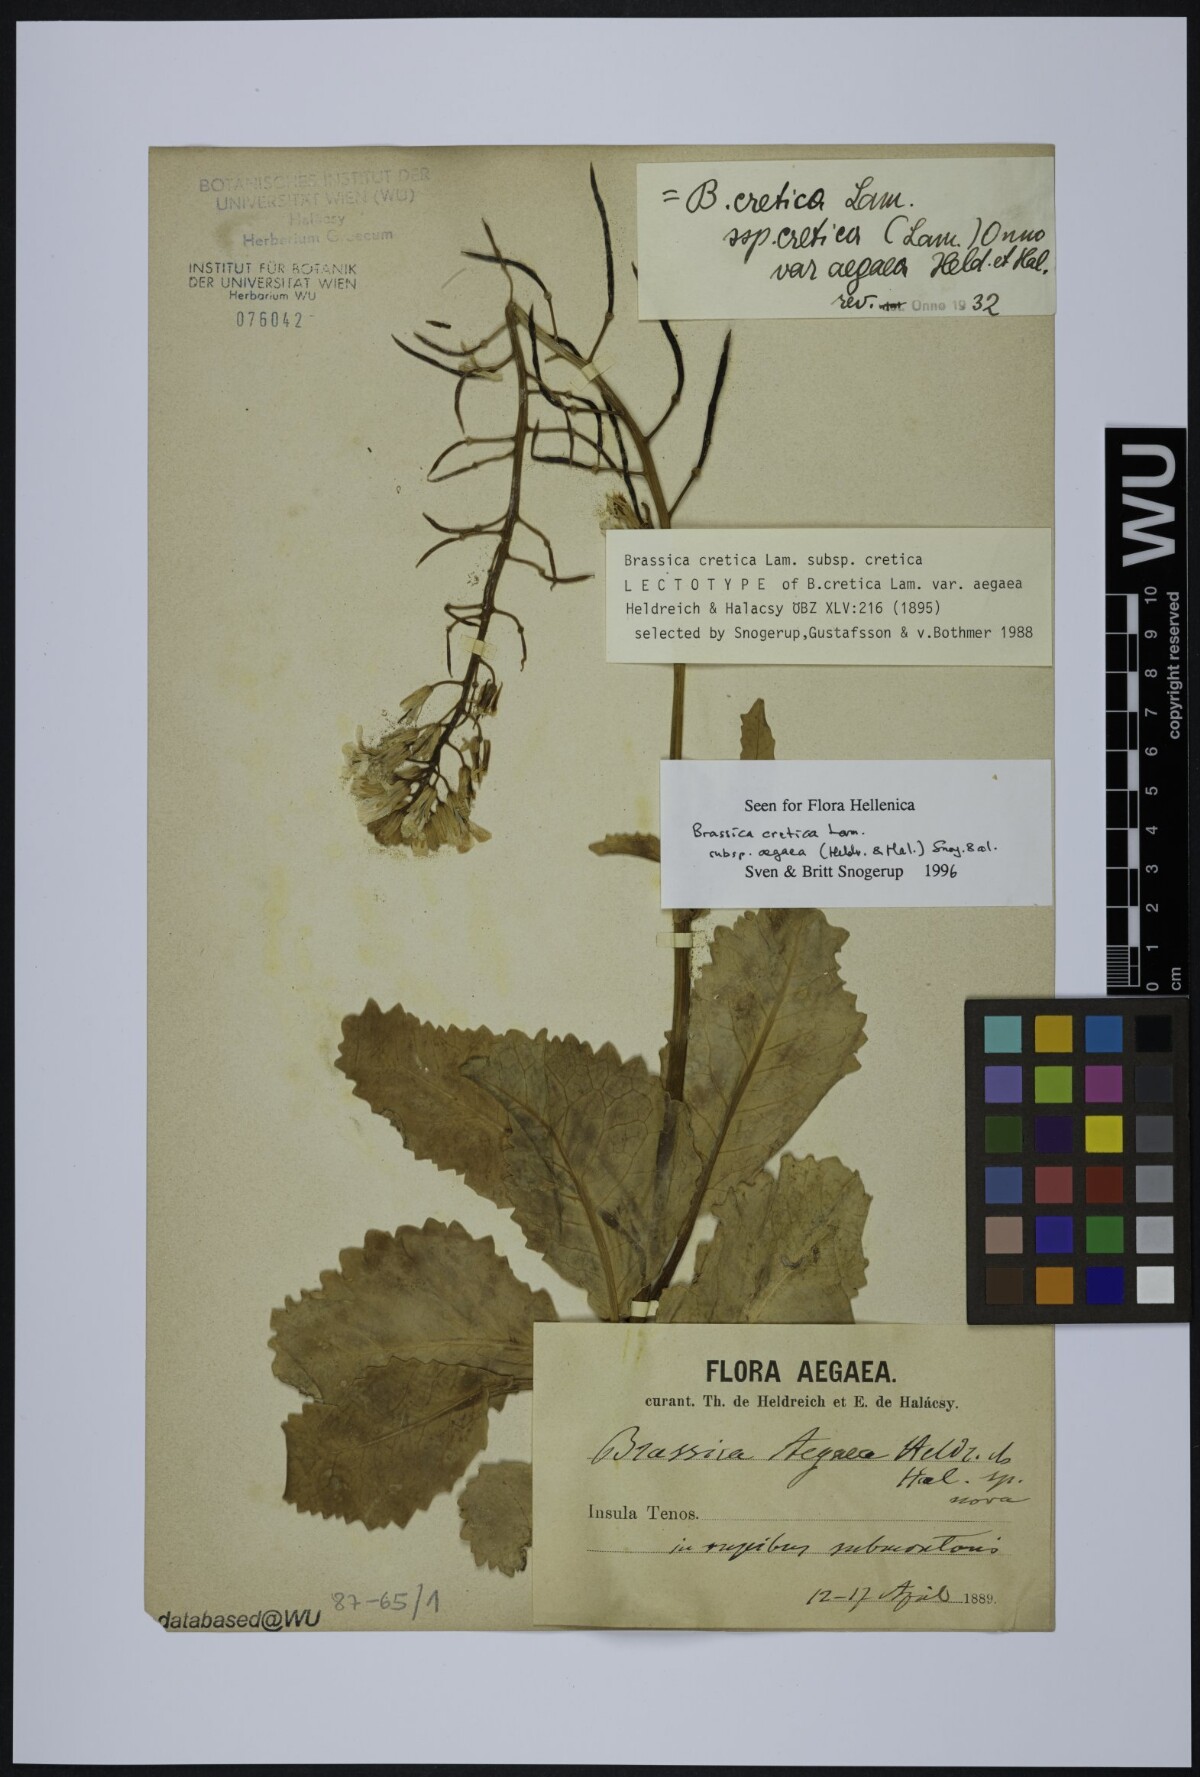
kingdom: Plantae
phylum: Tracheophyta
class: Magnoliopsida
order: Brassicales
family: Brassicaceae
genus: Brassica
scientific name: Brassica cretica
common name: Mustard
